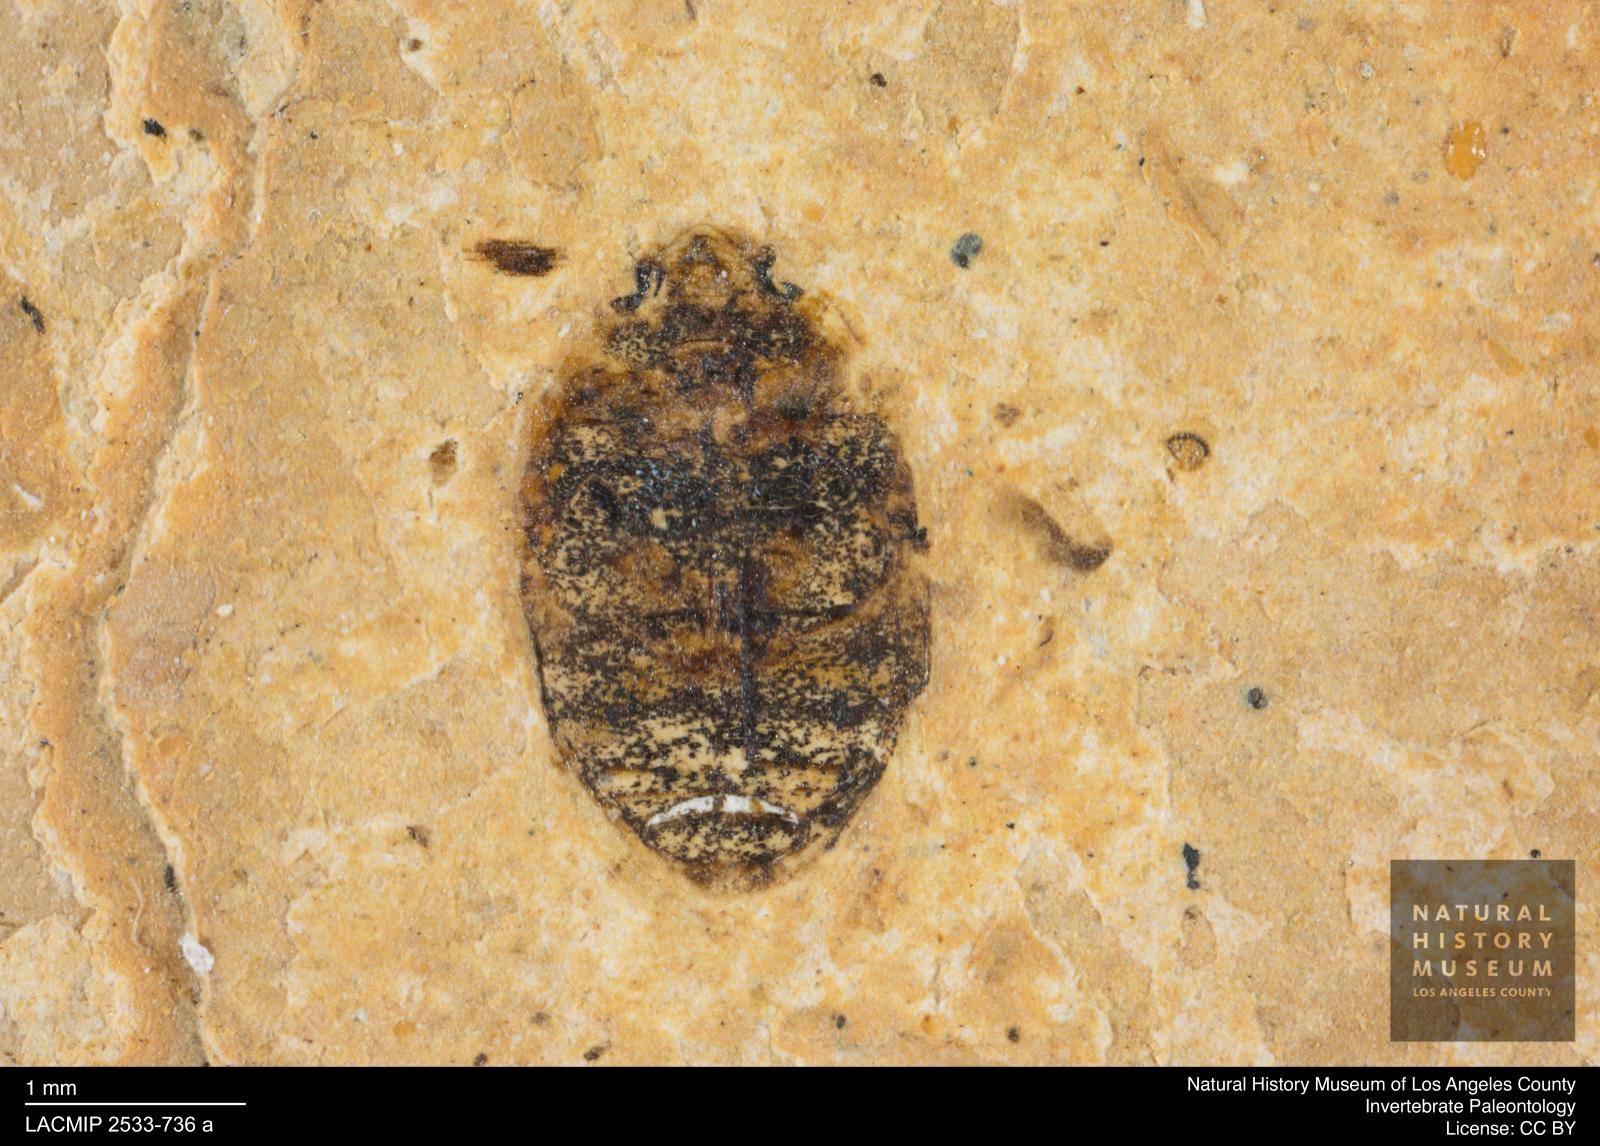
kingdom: Animalia
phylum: Arthropoda
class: Insecta
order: Coleoptera
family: Dytiscidae
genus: Oreodytes
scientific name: Oreodytes cryptolineatus
